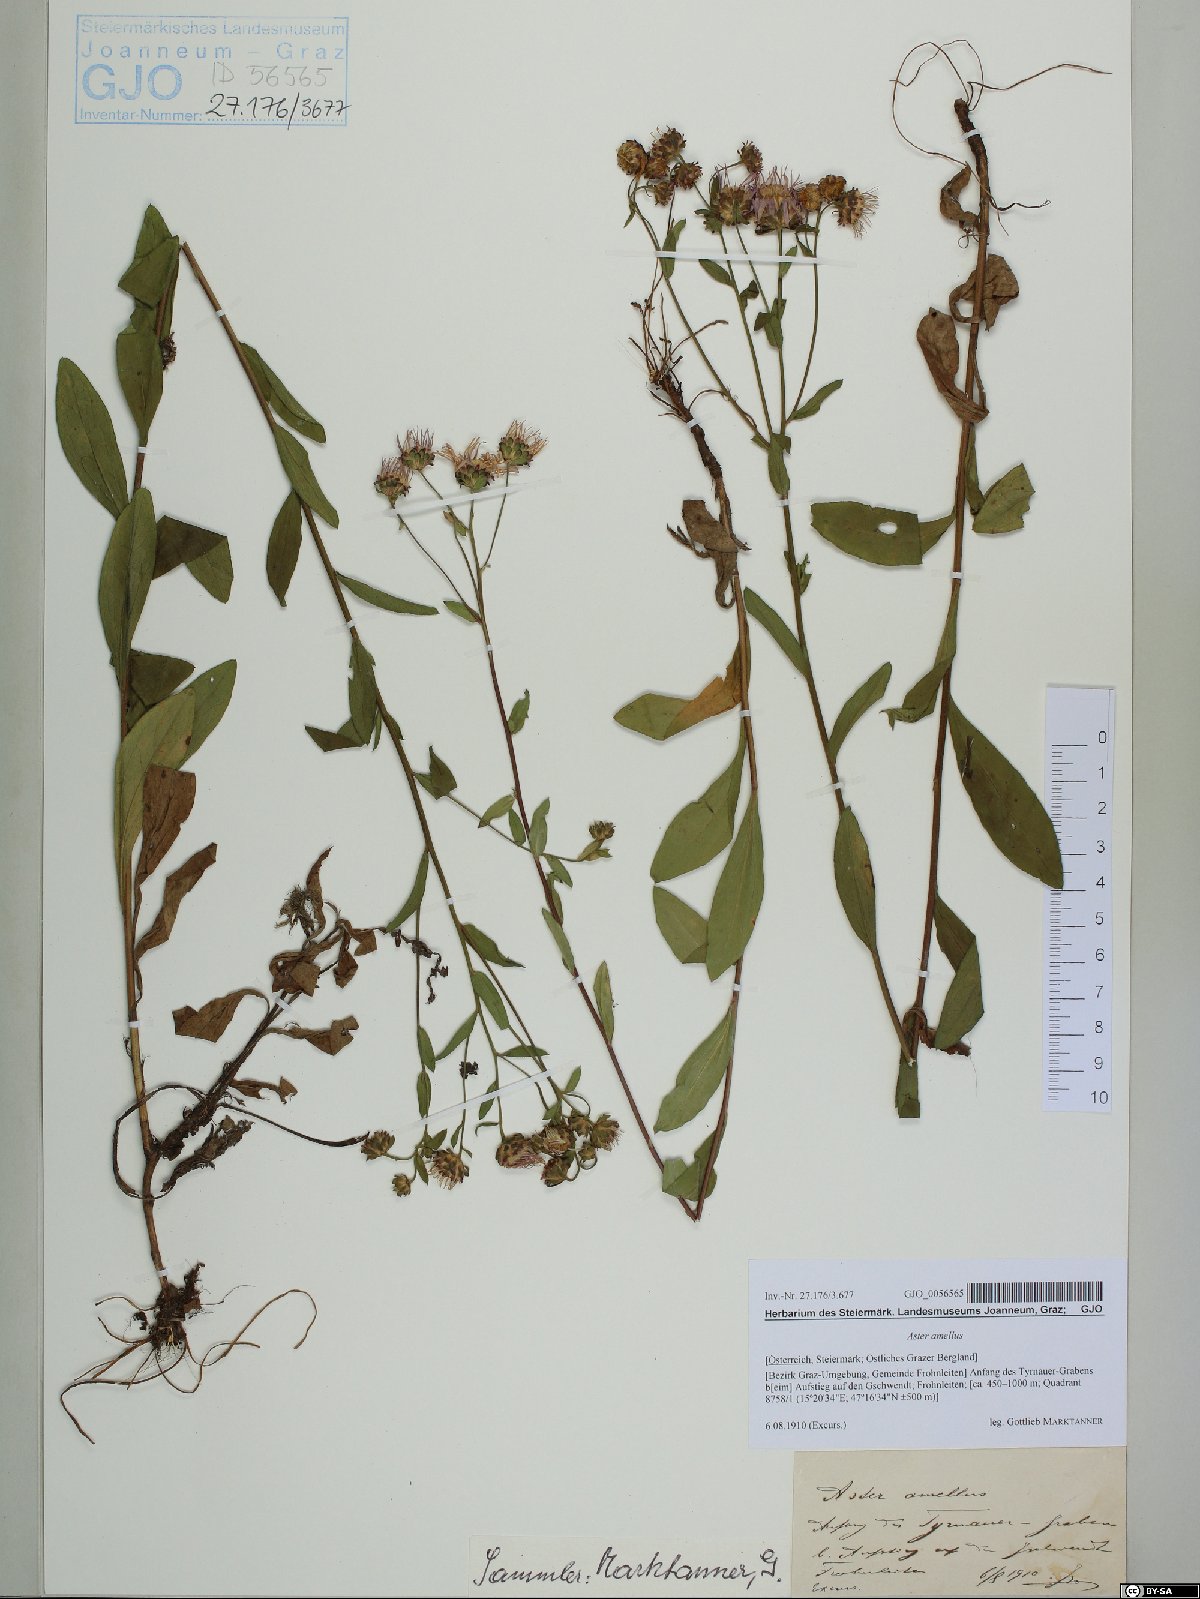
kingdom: Plantae
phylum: Tracheophyta
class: Magnoliopsida
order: Asterales
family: Asteraceae
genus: Aster
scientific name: Aster amellus
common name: European michaelmas daisy
